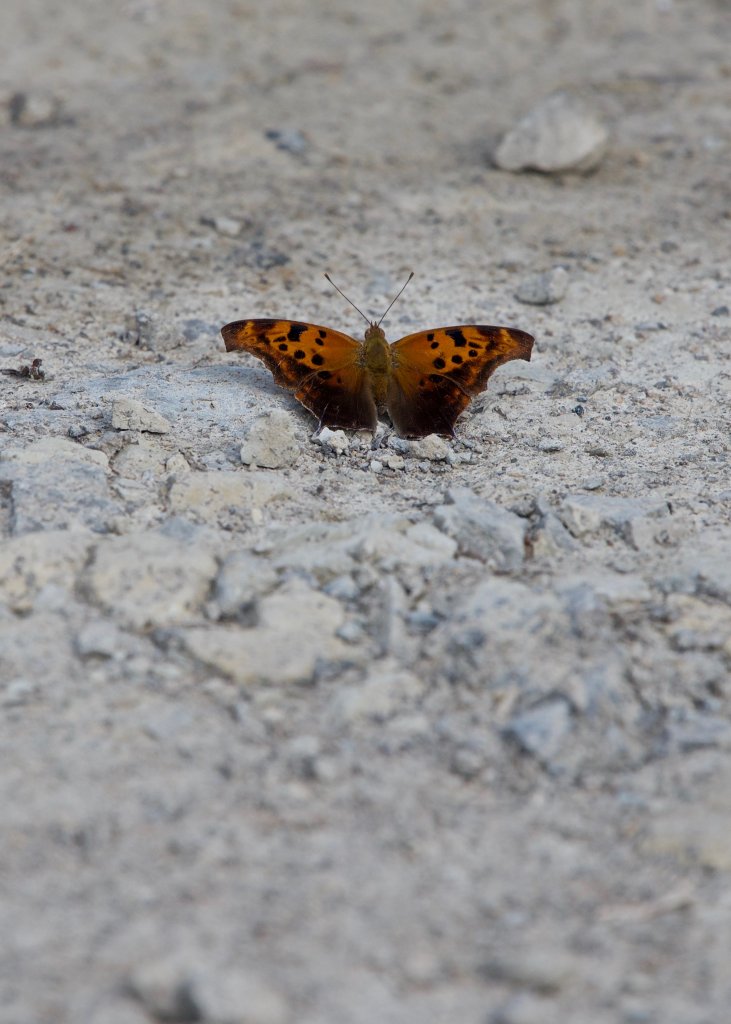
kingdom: Animalia
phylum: Arthropoda
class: Insecta
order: Lepidoptera
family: Nymphalidae
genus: Polygonia
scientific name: Polygonia interrogationis
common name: Question Mark
